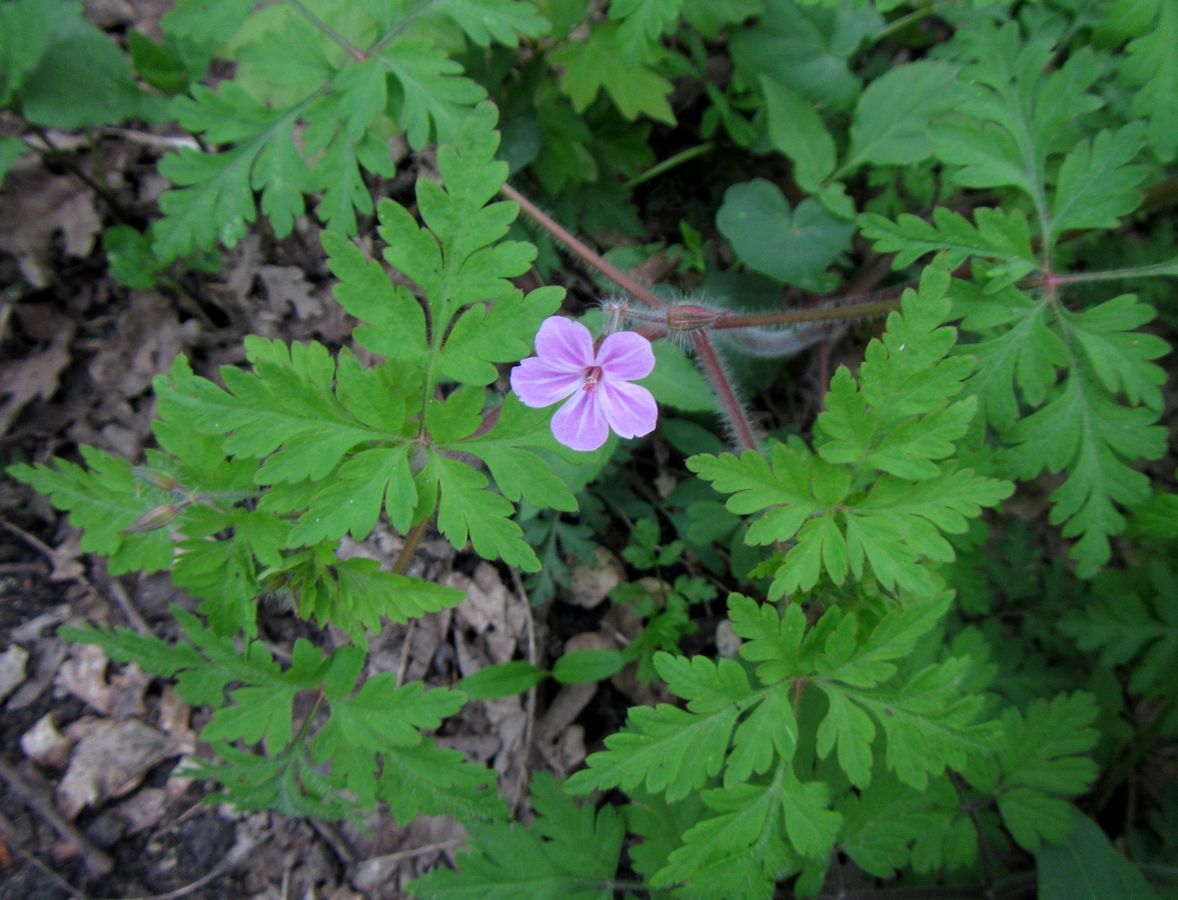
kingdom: Plantae
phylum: Tracheophyta
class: Magnoliopsida
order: Geraniales
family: Geraniaceae
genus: Geranium
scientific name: Geranium robertianum
